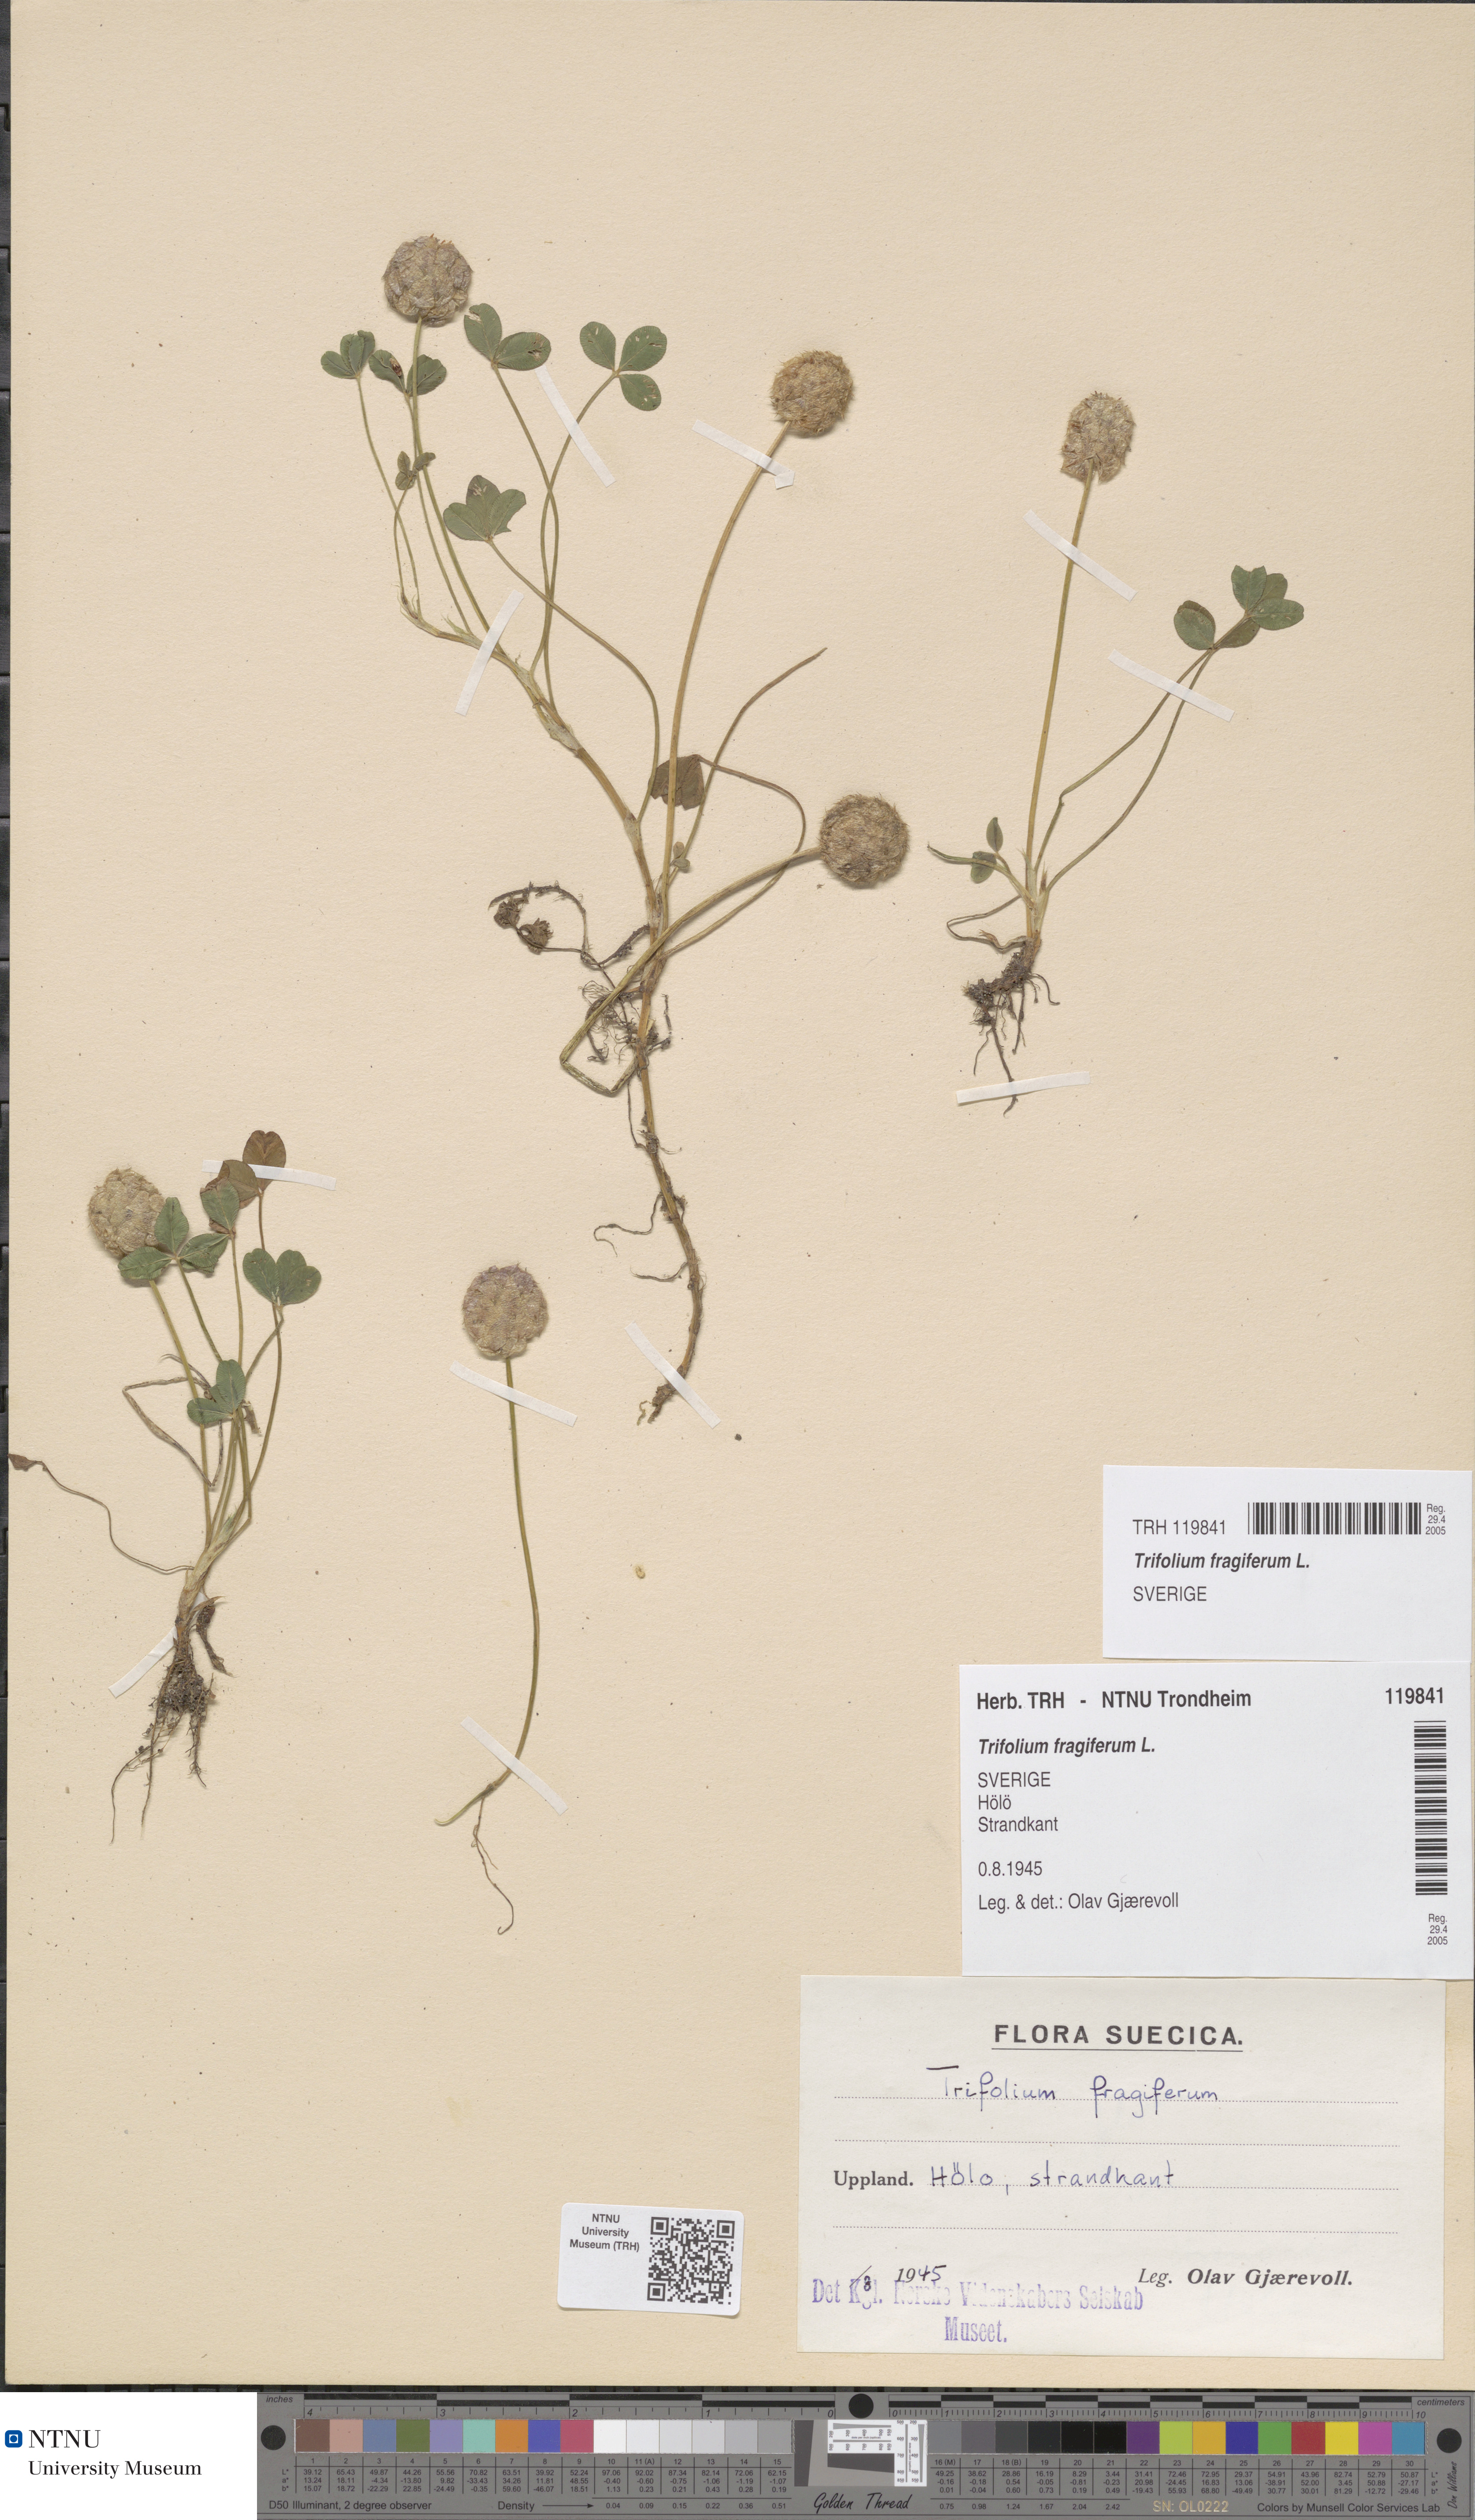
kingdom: Plantae
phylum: Tracheophyta
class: Magnoliopsida
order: Fabales
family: Fabaceae
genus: Trifolium
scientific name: Trifolium fragiferum
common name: Strawberry clover
